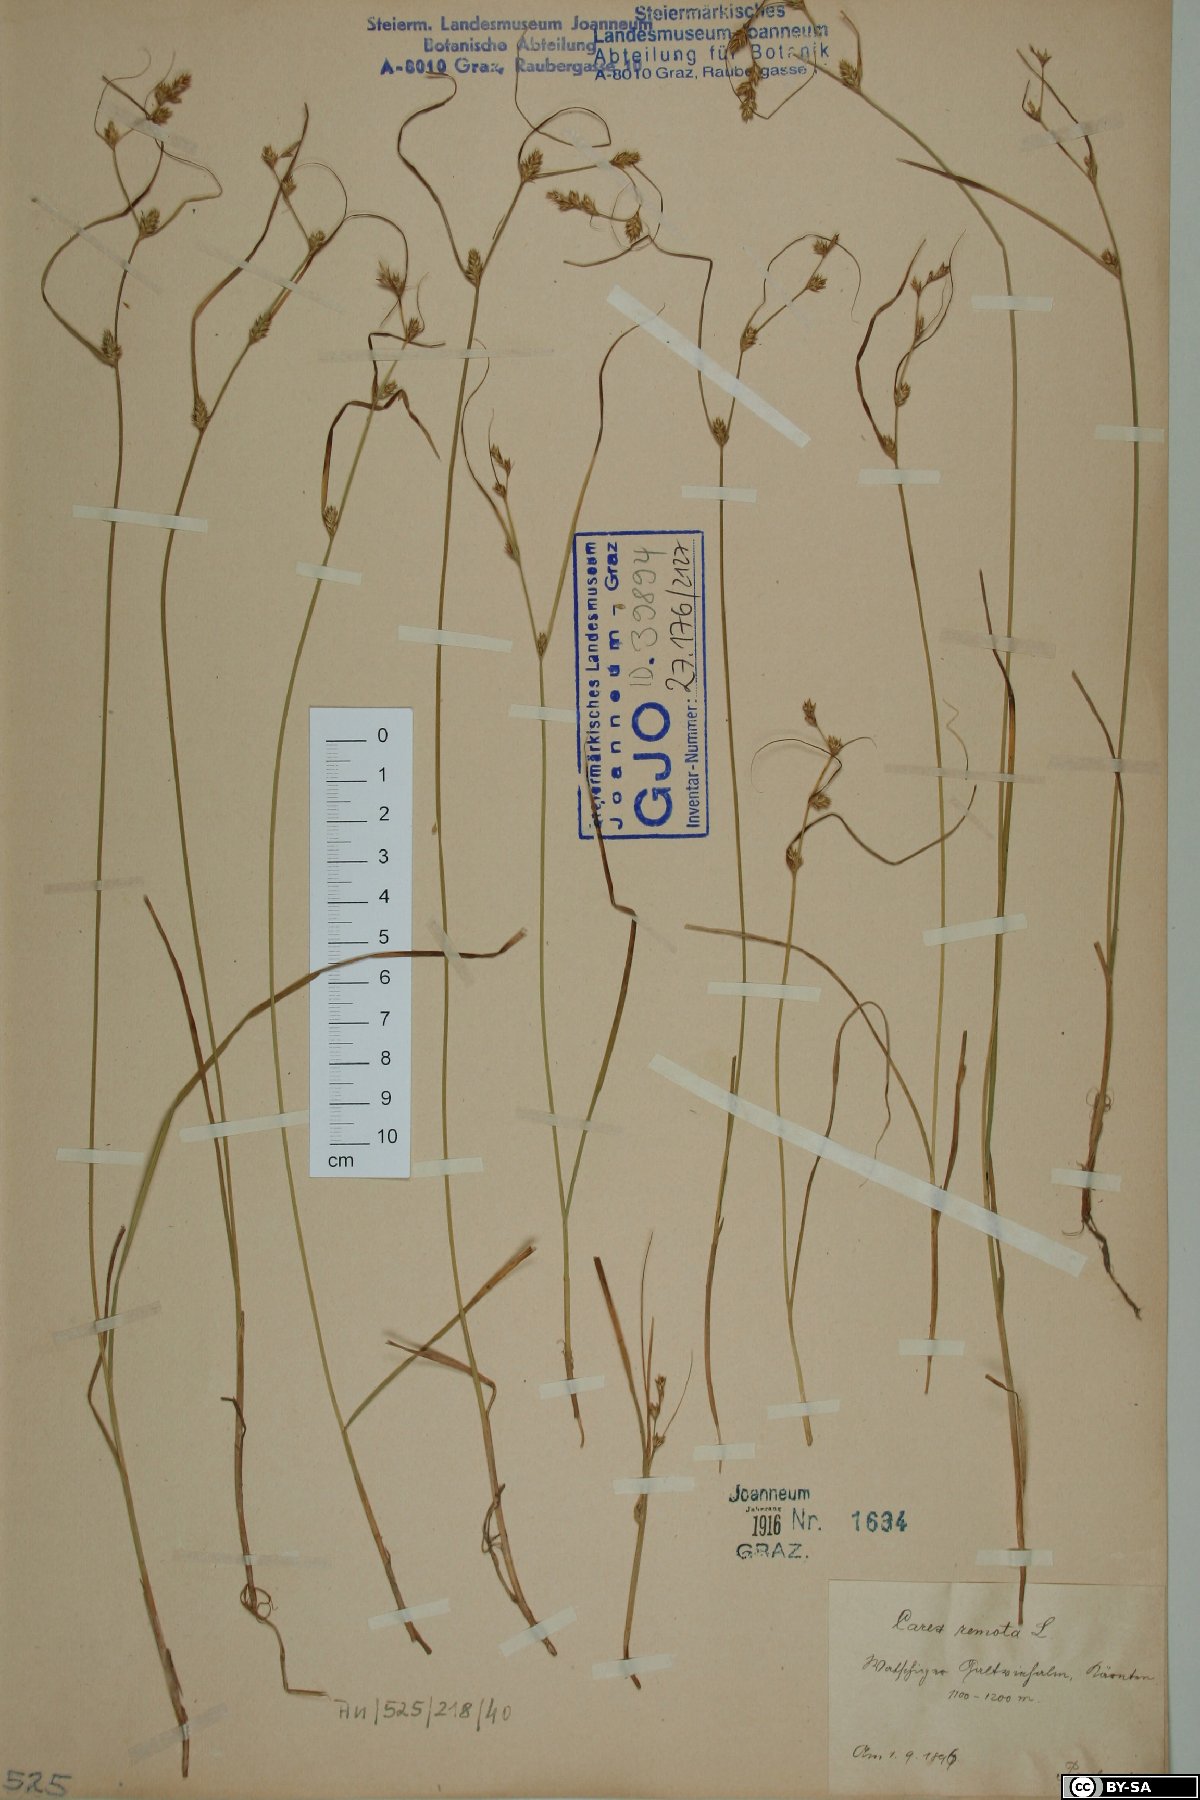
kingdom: Plantae
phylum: Tracheophyta
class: Liliopsida
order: Poales
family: Cyperaceae
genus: Carex
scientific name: Carex remota
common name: Remote sedge
